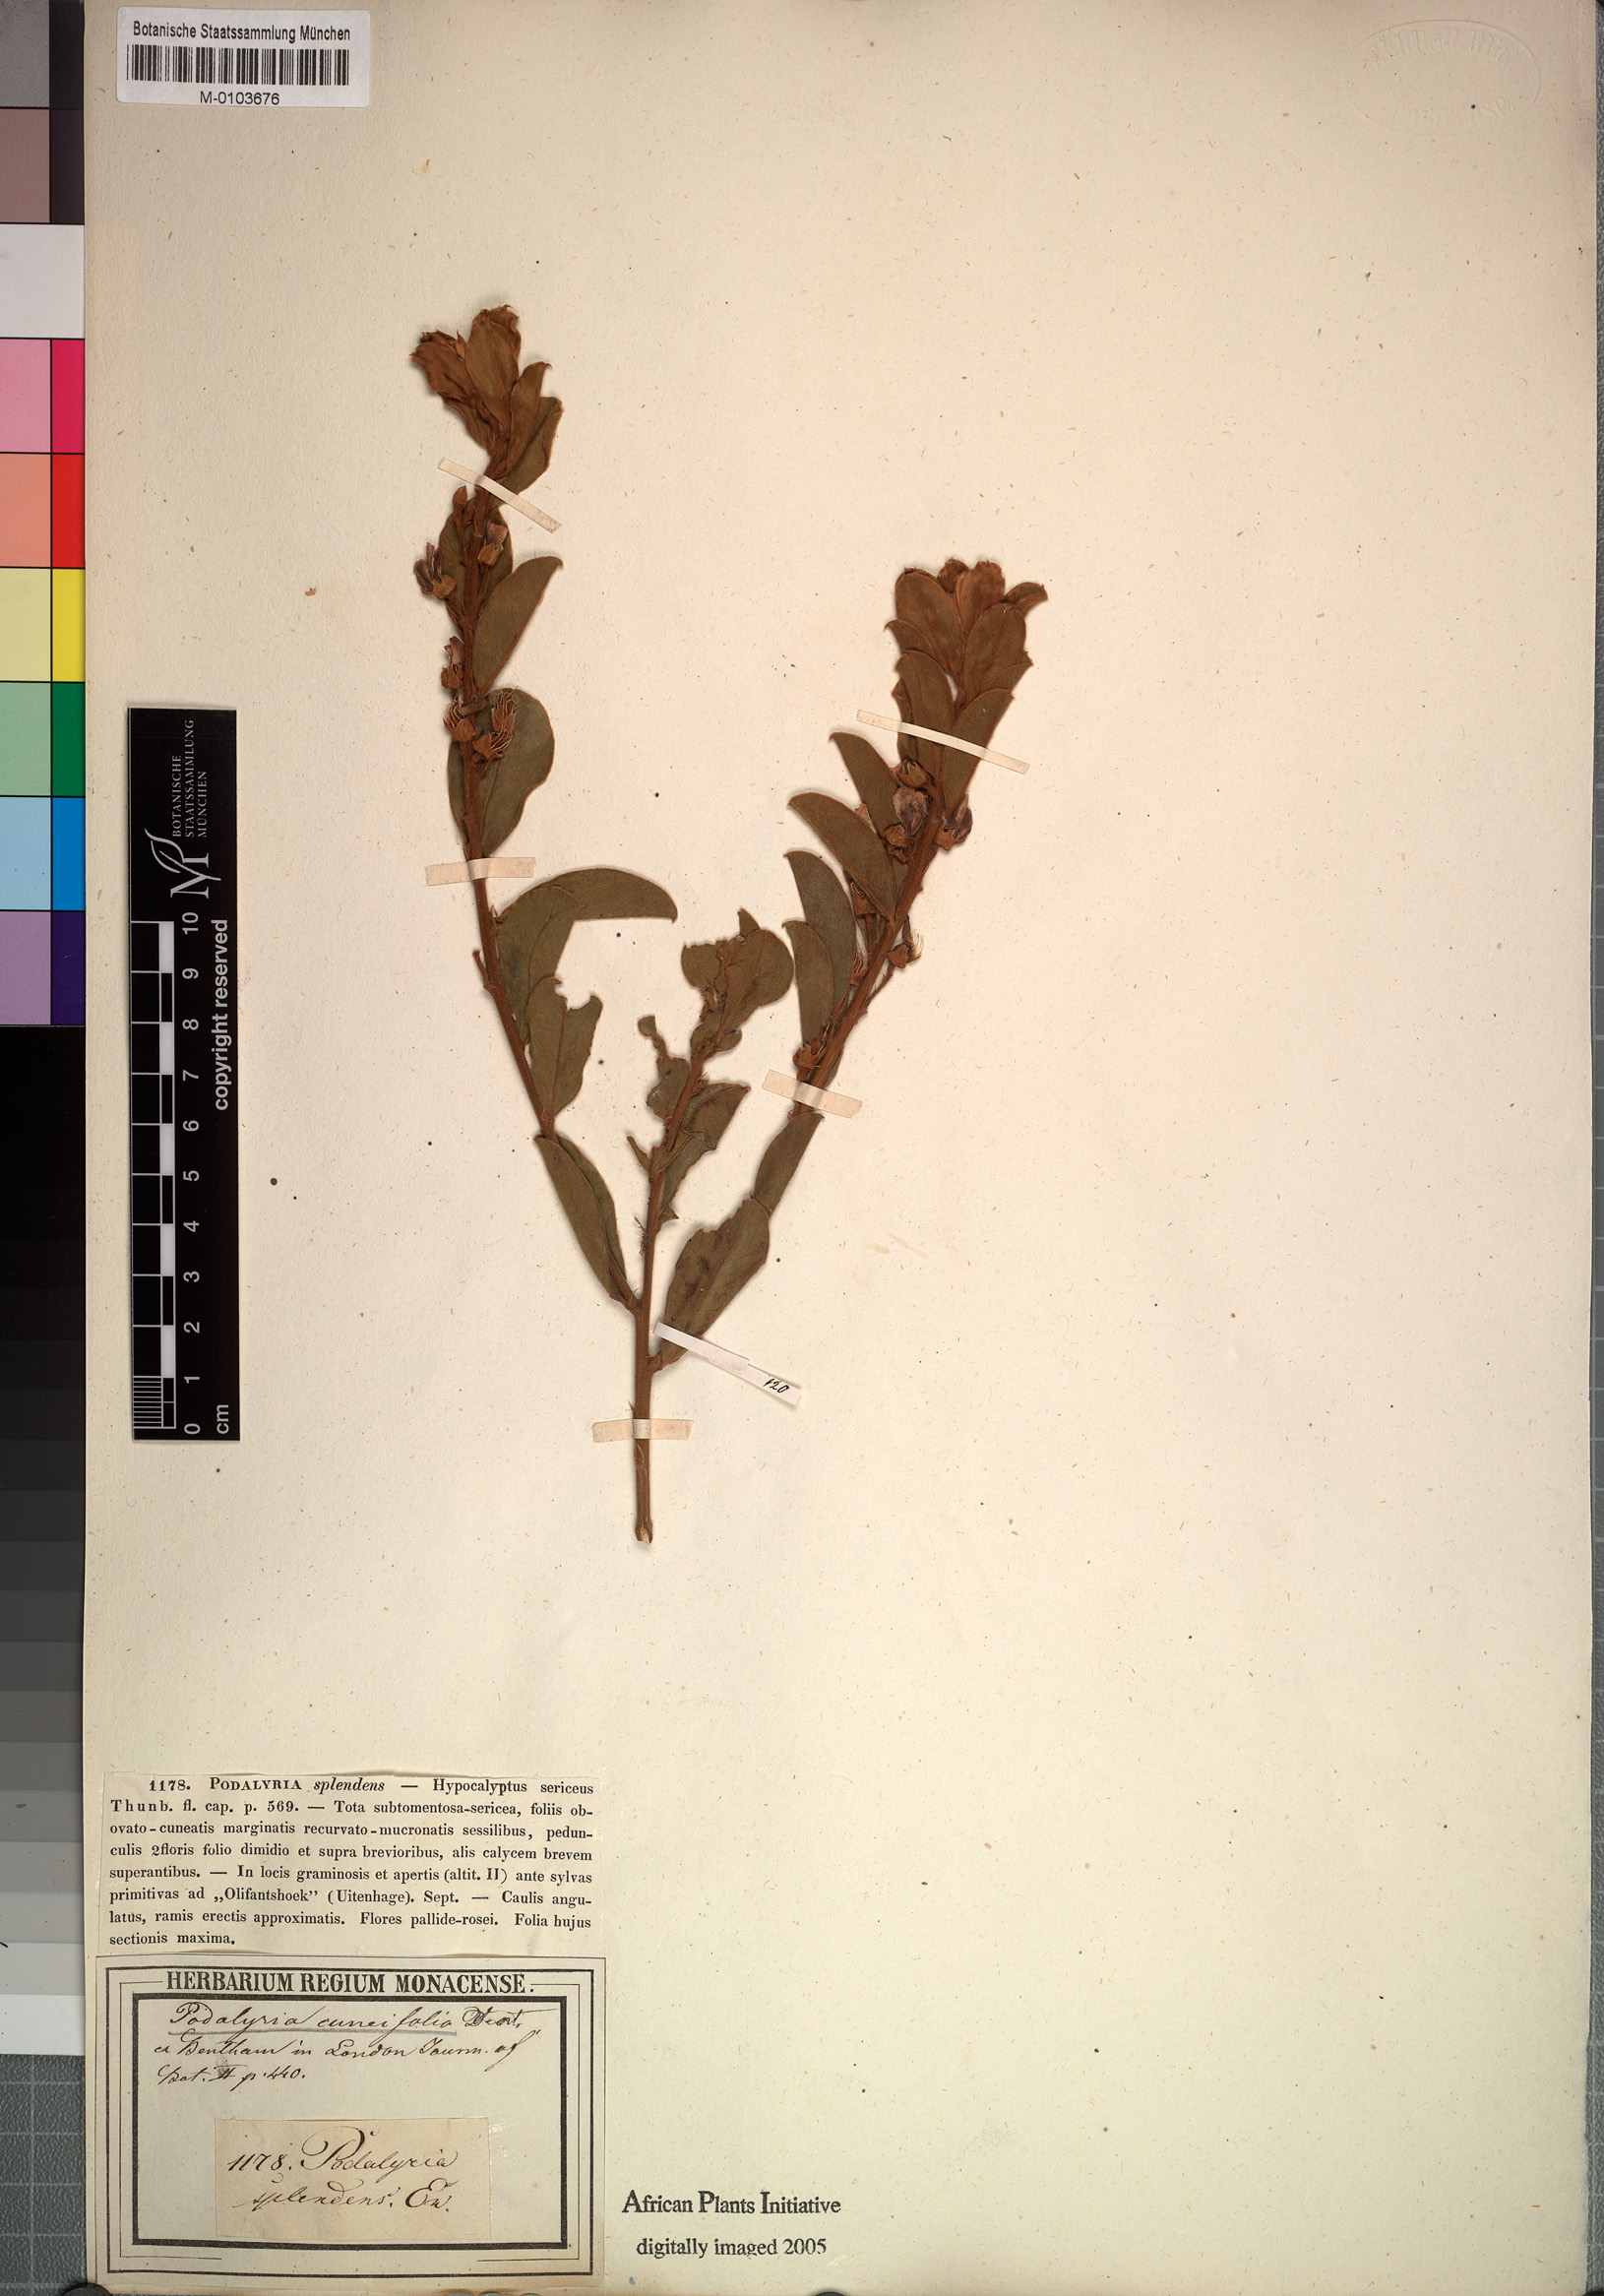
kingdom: Plantae
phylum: Tracheophyta
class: Magnoliopsida
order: Fabales
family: Fabaceae
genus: Podalyria
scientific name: Podalyria racemulosa
